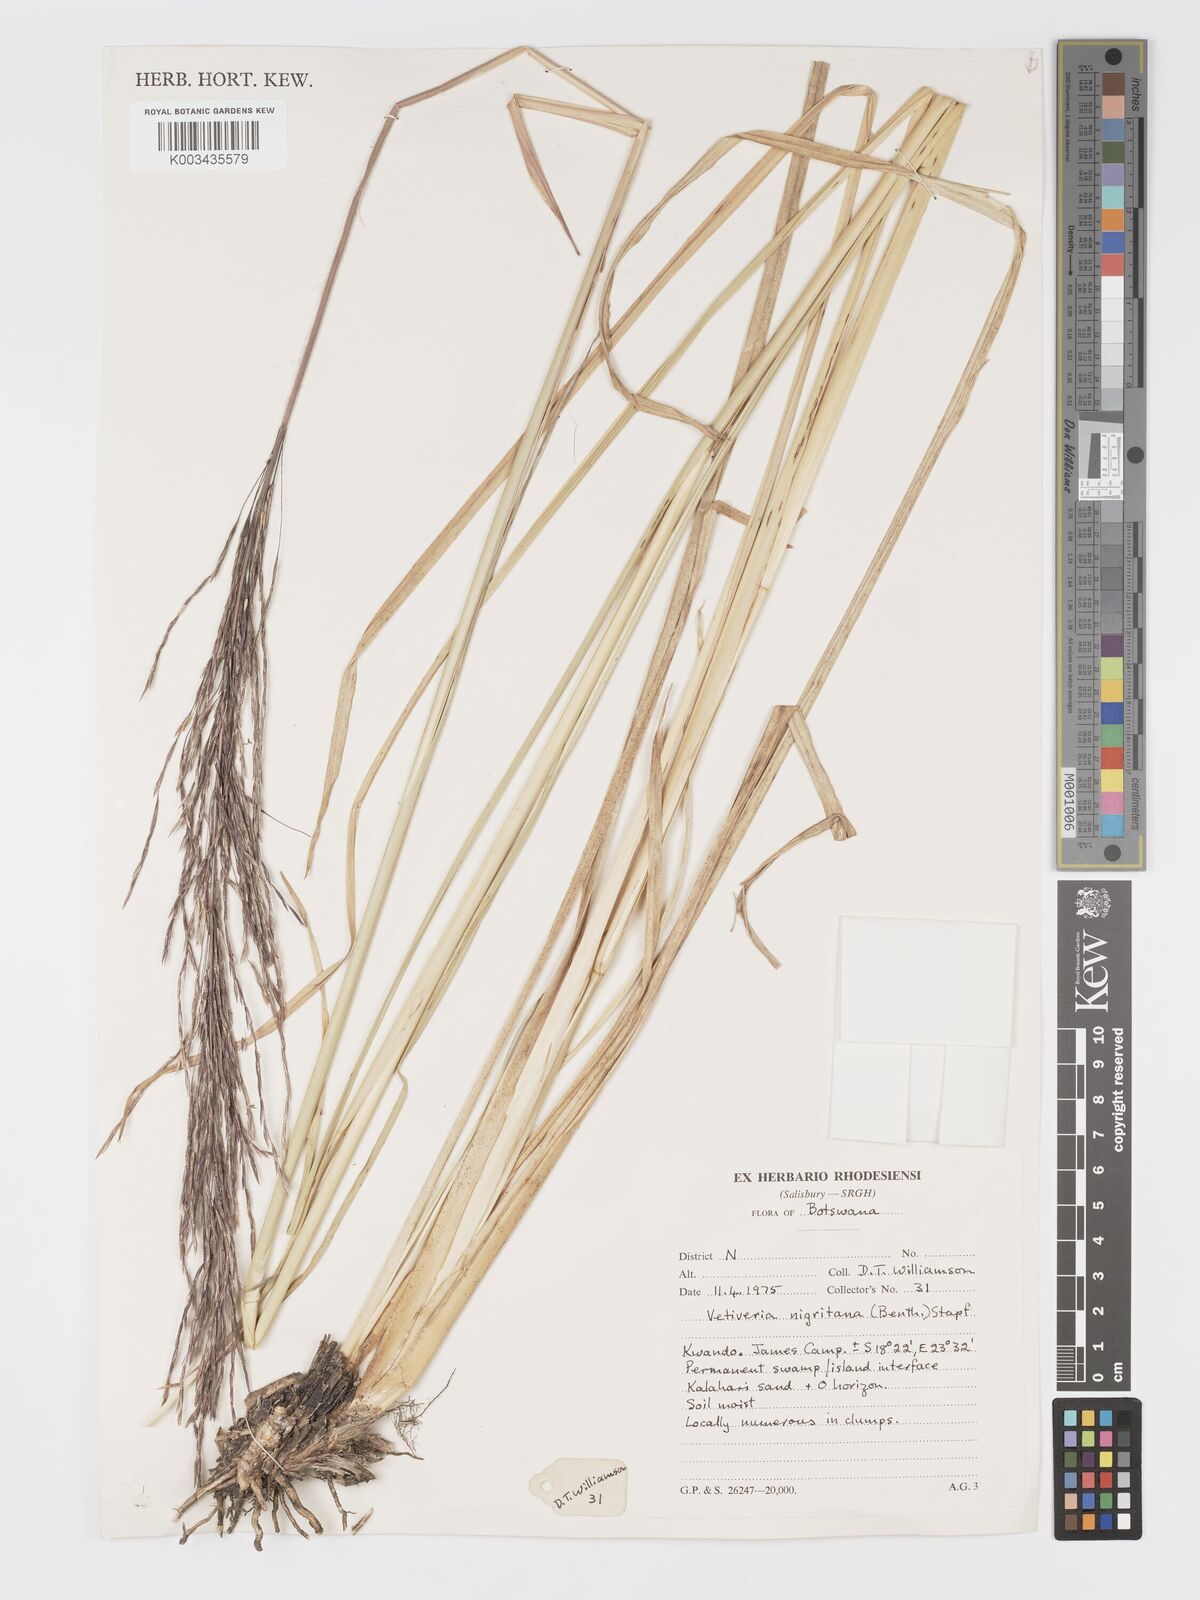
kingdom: Plantae
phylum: Tracheophyta
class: Liliopsida
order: Poales
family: Poaceae
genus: Chrysopogon
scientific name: Chrysopogon nigritanus
